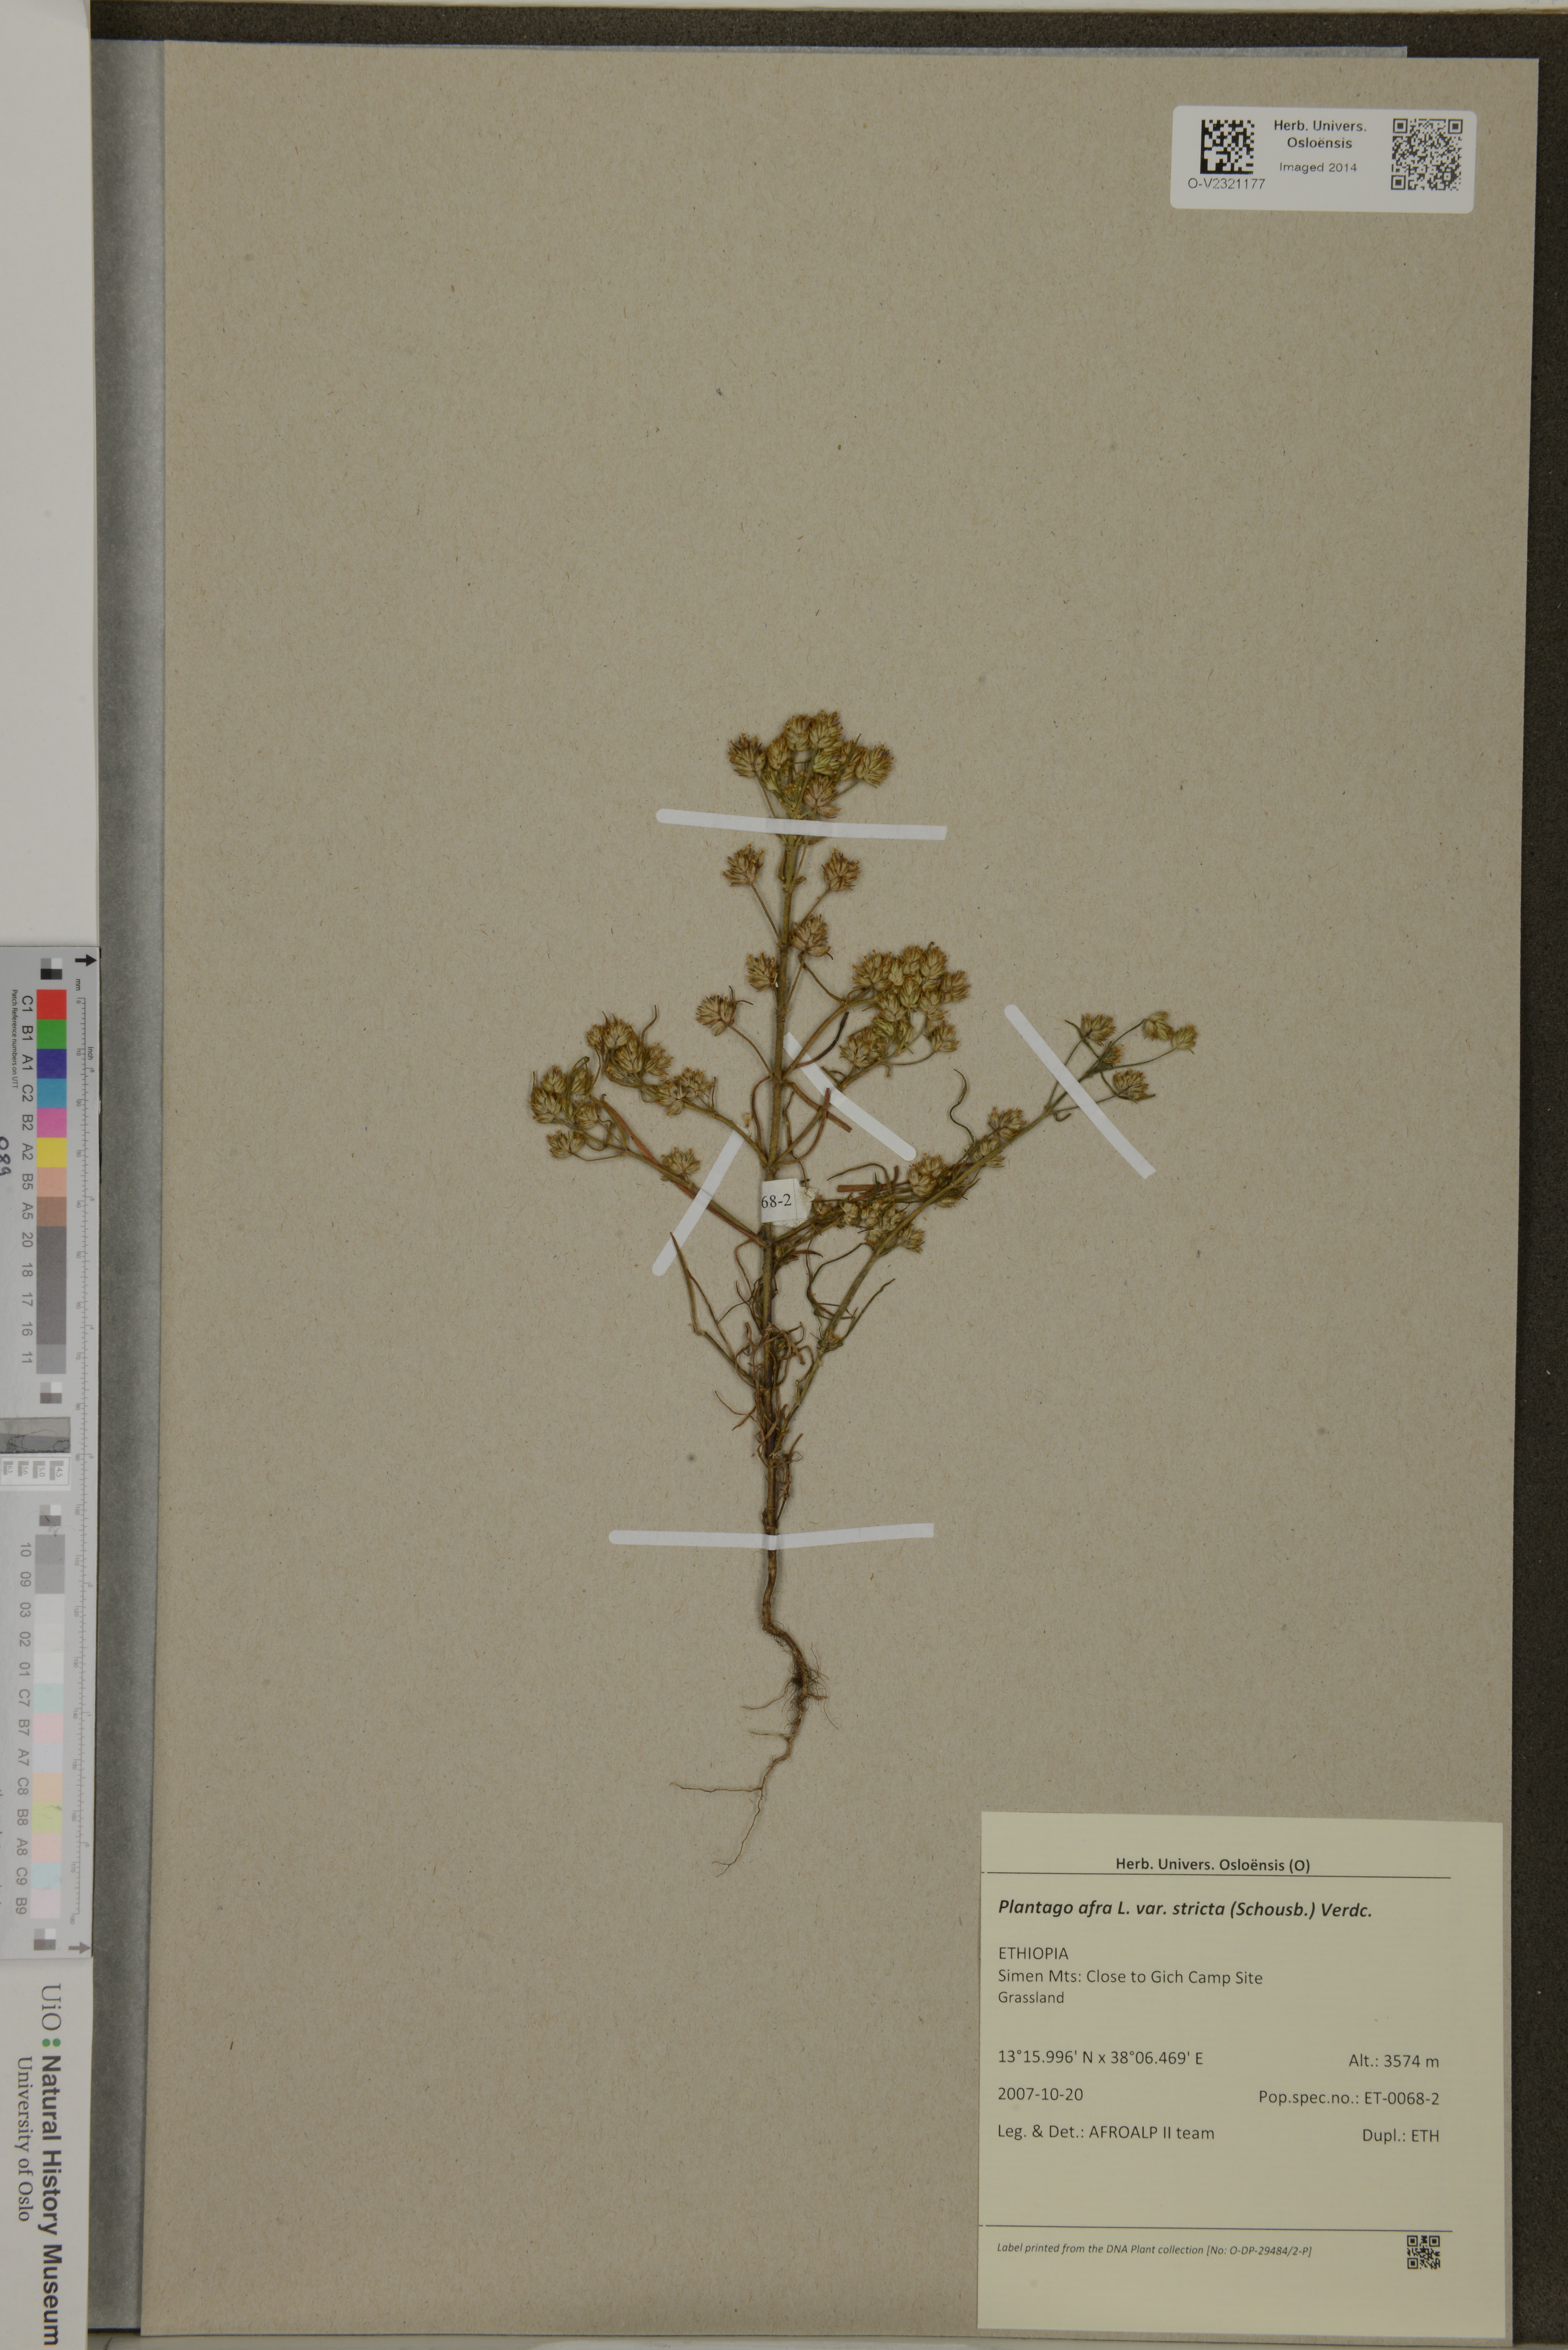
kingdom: Plantae
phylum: Tracheophyta
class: Magnoliopsida
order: Lamiales
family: Plantaginaceae
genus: Plantago
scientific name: Plantago afra
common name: Glandular plantain
